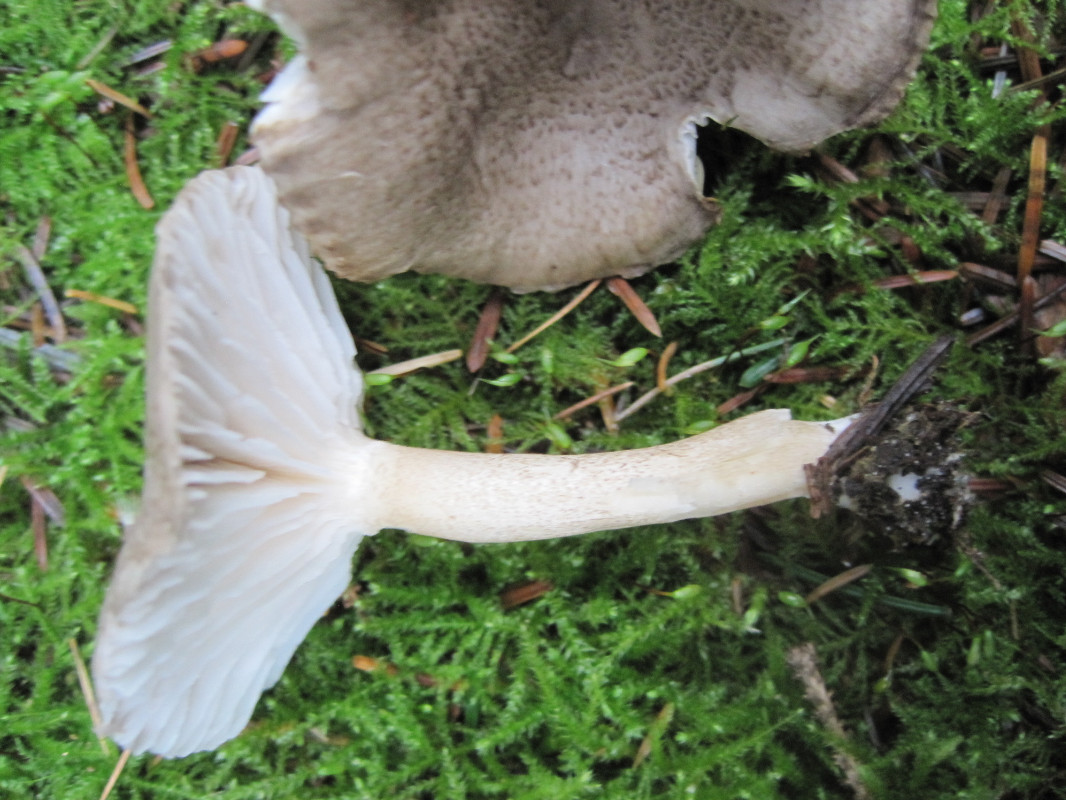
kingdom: Fungi
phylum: Basidiomycota
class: Agaricomycetes
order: Agaricales
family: Hygrophoraceae
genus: Hygrophorus
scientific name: Hygrophorus pustulatus
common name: mørkprikket sneglehat
